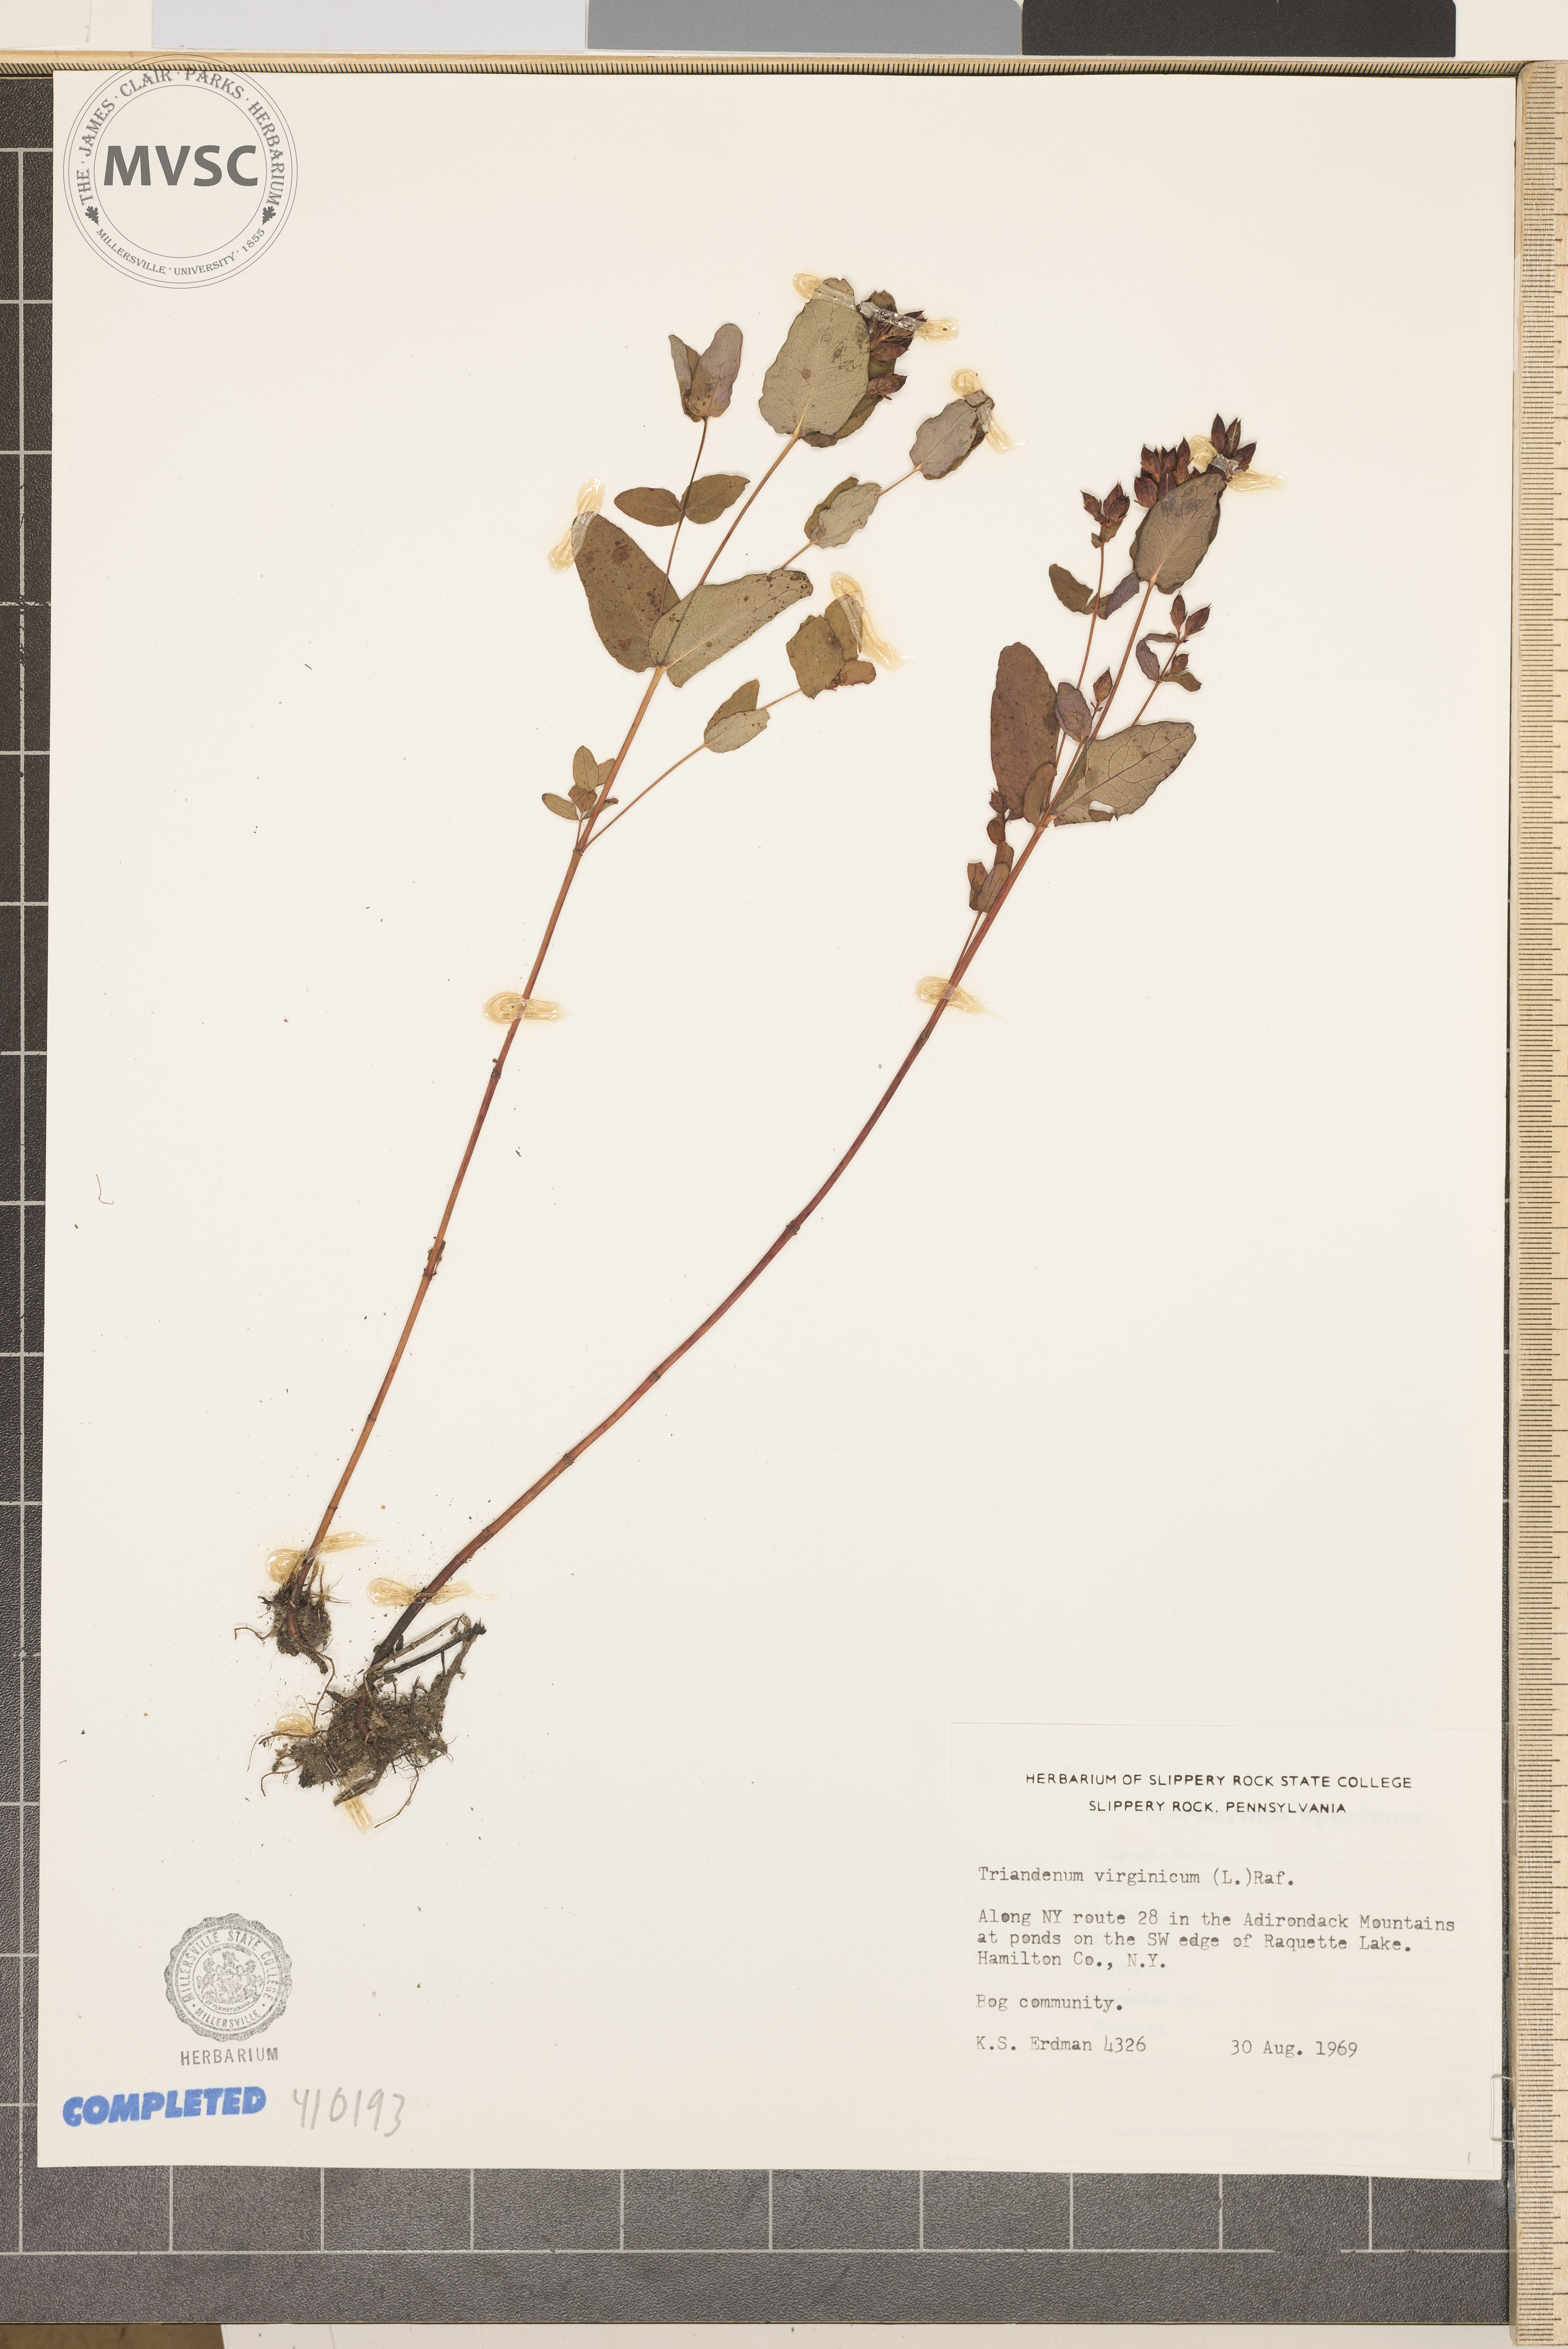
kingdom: Plantae
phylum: Tracheophyta
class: Magnoliopsida
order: Malpighiales
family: Hypericaceae
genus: Triadenum
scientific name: Triadenum virginicum
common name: Marsh St. John's-wort
